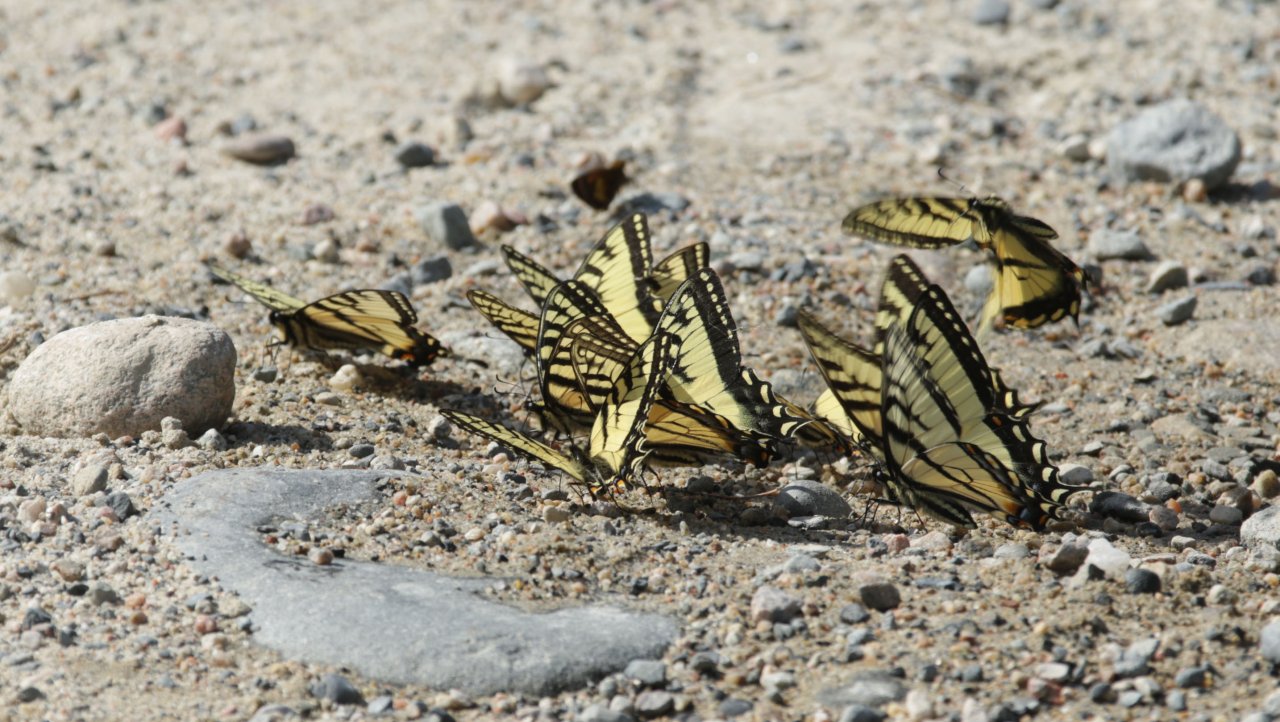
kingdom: Animalia
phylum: Arthropoda
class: Insecta
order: Lepidoptera
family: Papilionidae
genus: Pterourus
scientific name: Pterourus canadensis
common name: Canadian Tiger Swallowtail
